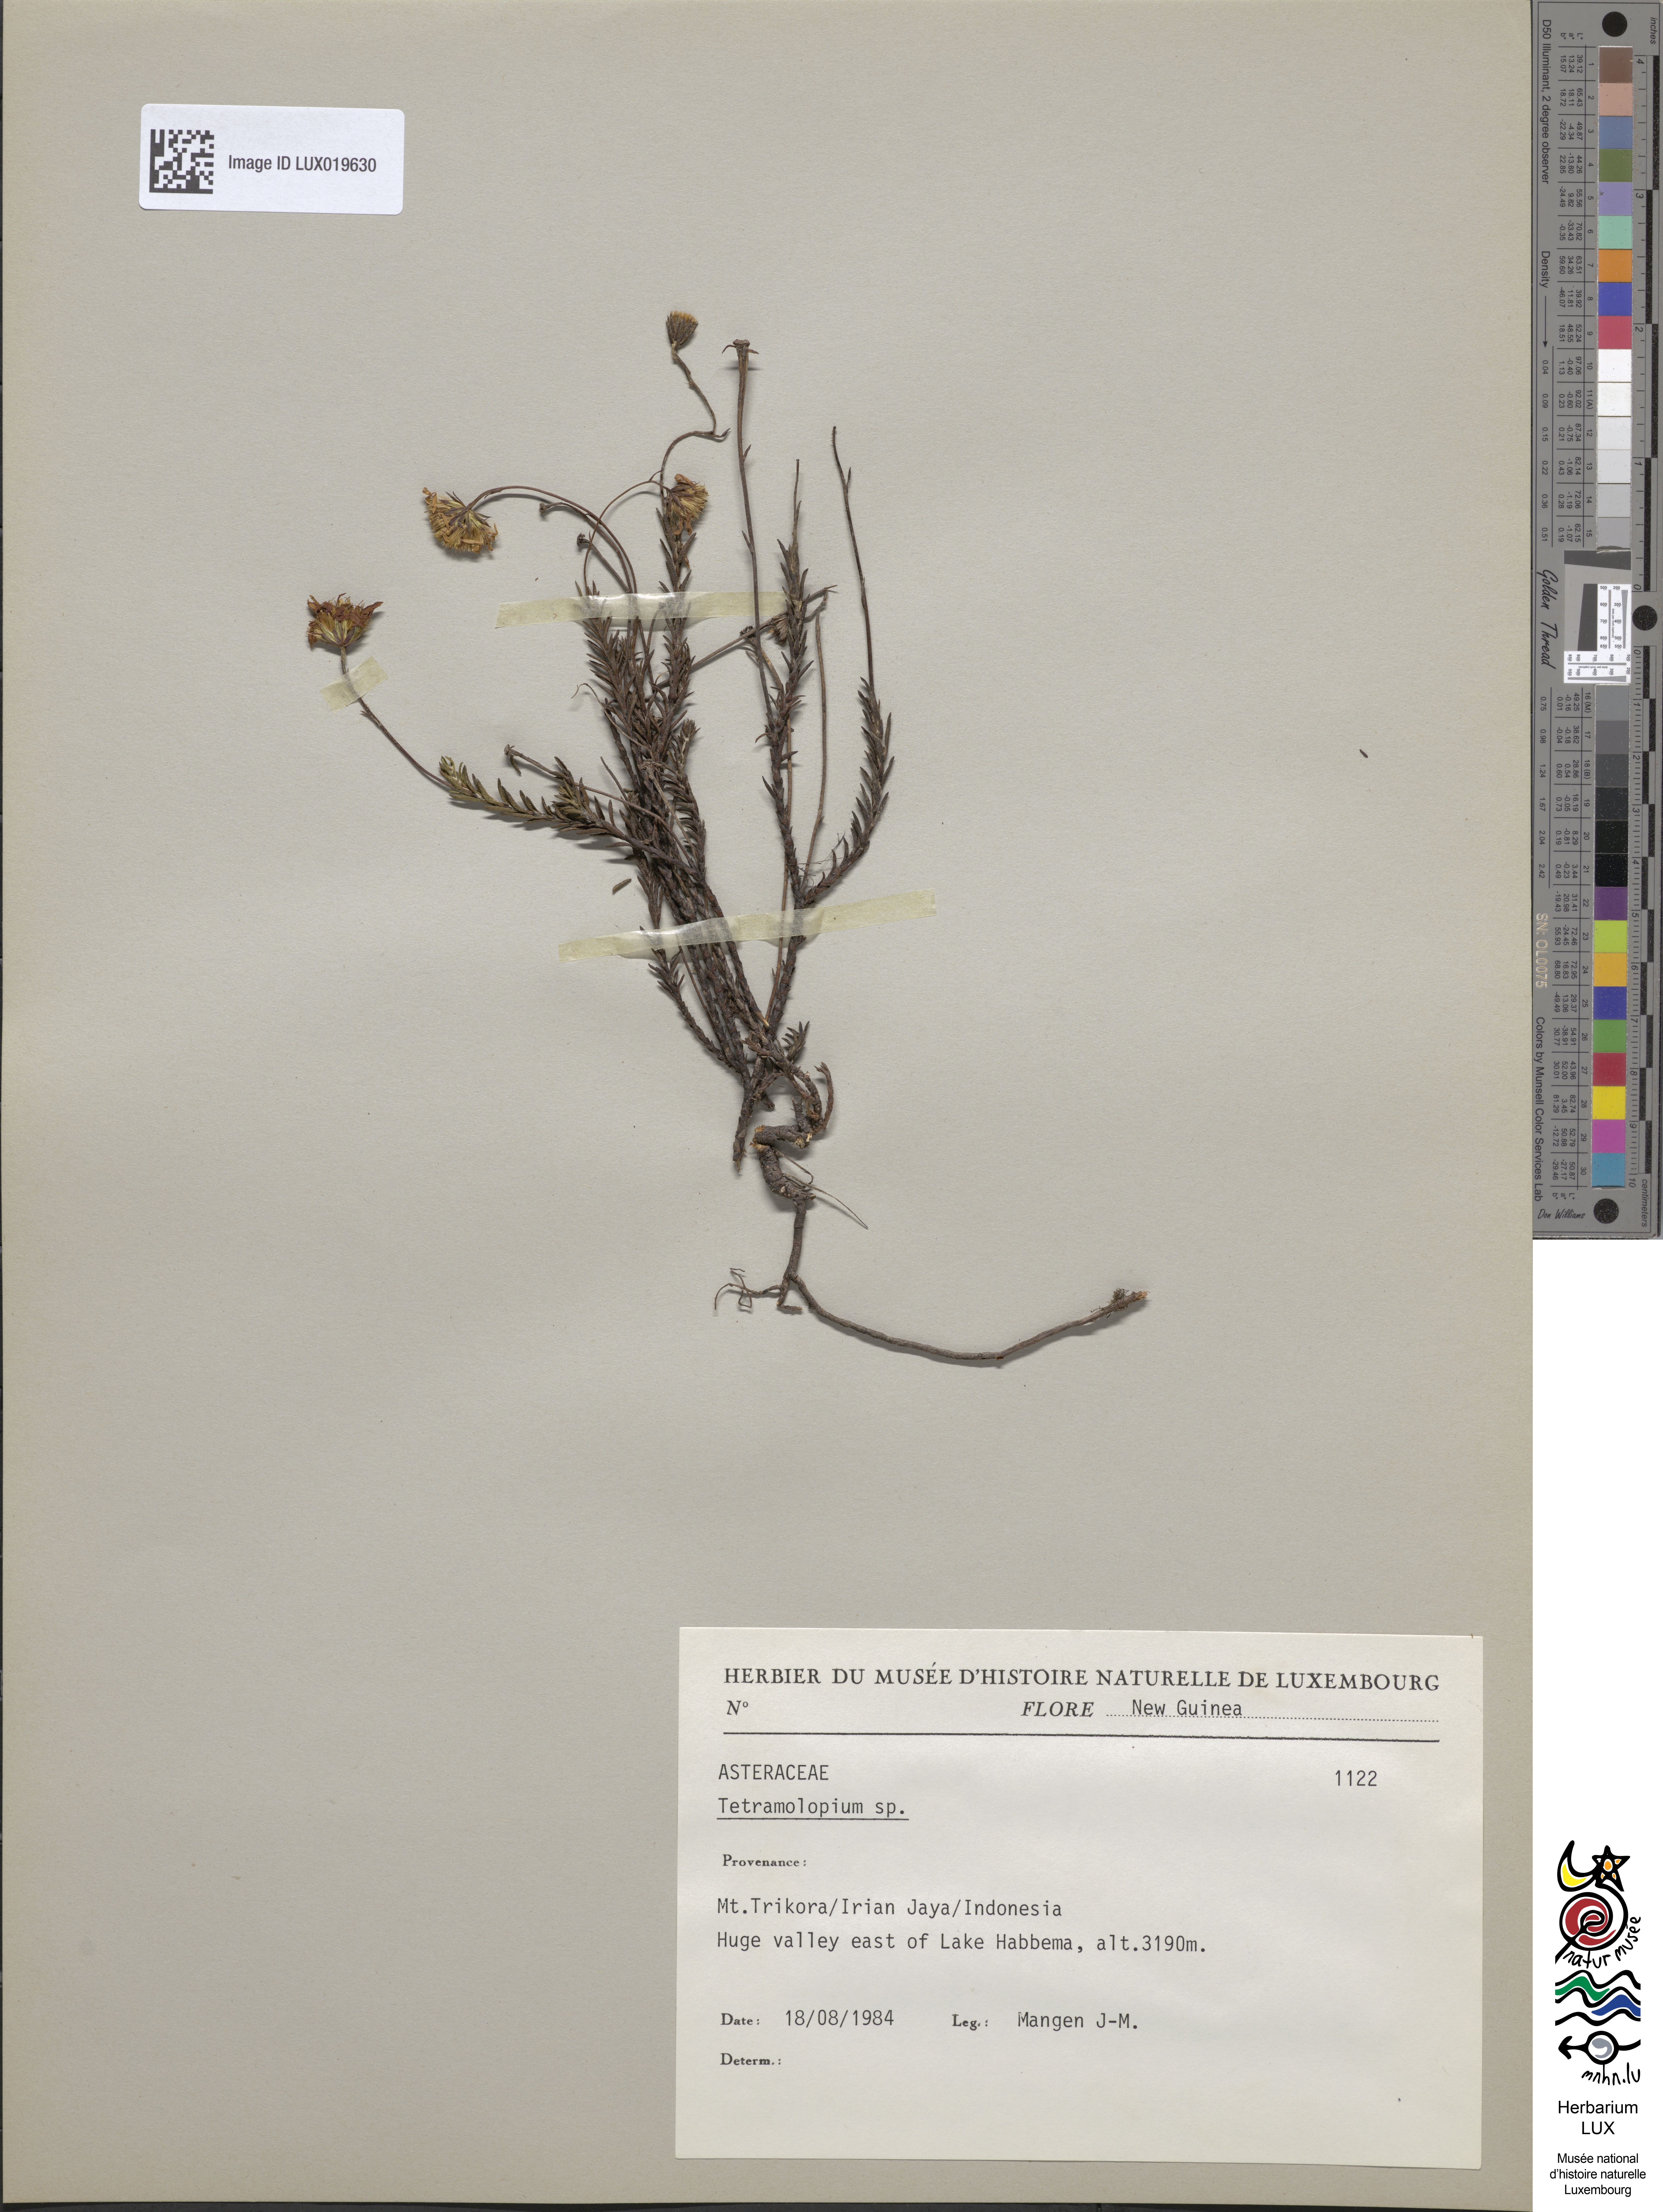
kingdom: Plantae
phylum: Tracheophyta
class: Magnoliopsida
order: Asterales
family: Asteraceae
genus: Tetramolopium
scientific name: Tetramolopium
